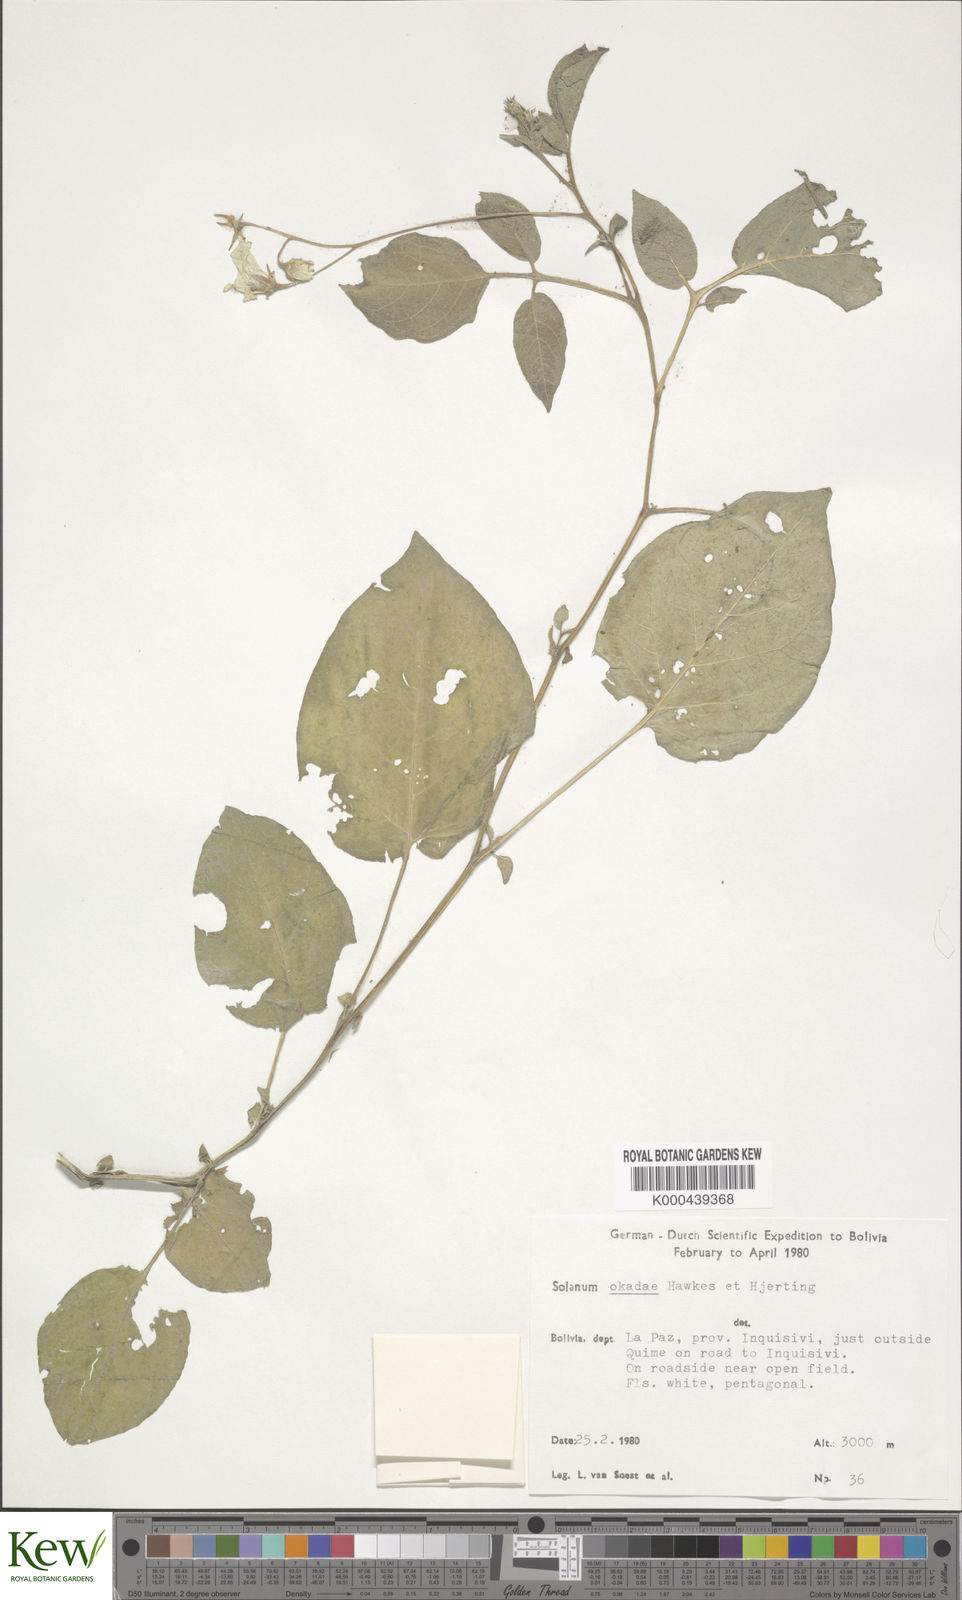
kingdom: Plantae
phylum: Tracheophyta
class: Magnoliopsida
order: Solanales
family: Solanaceae
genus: Solanum
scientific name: Solanum okadae
